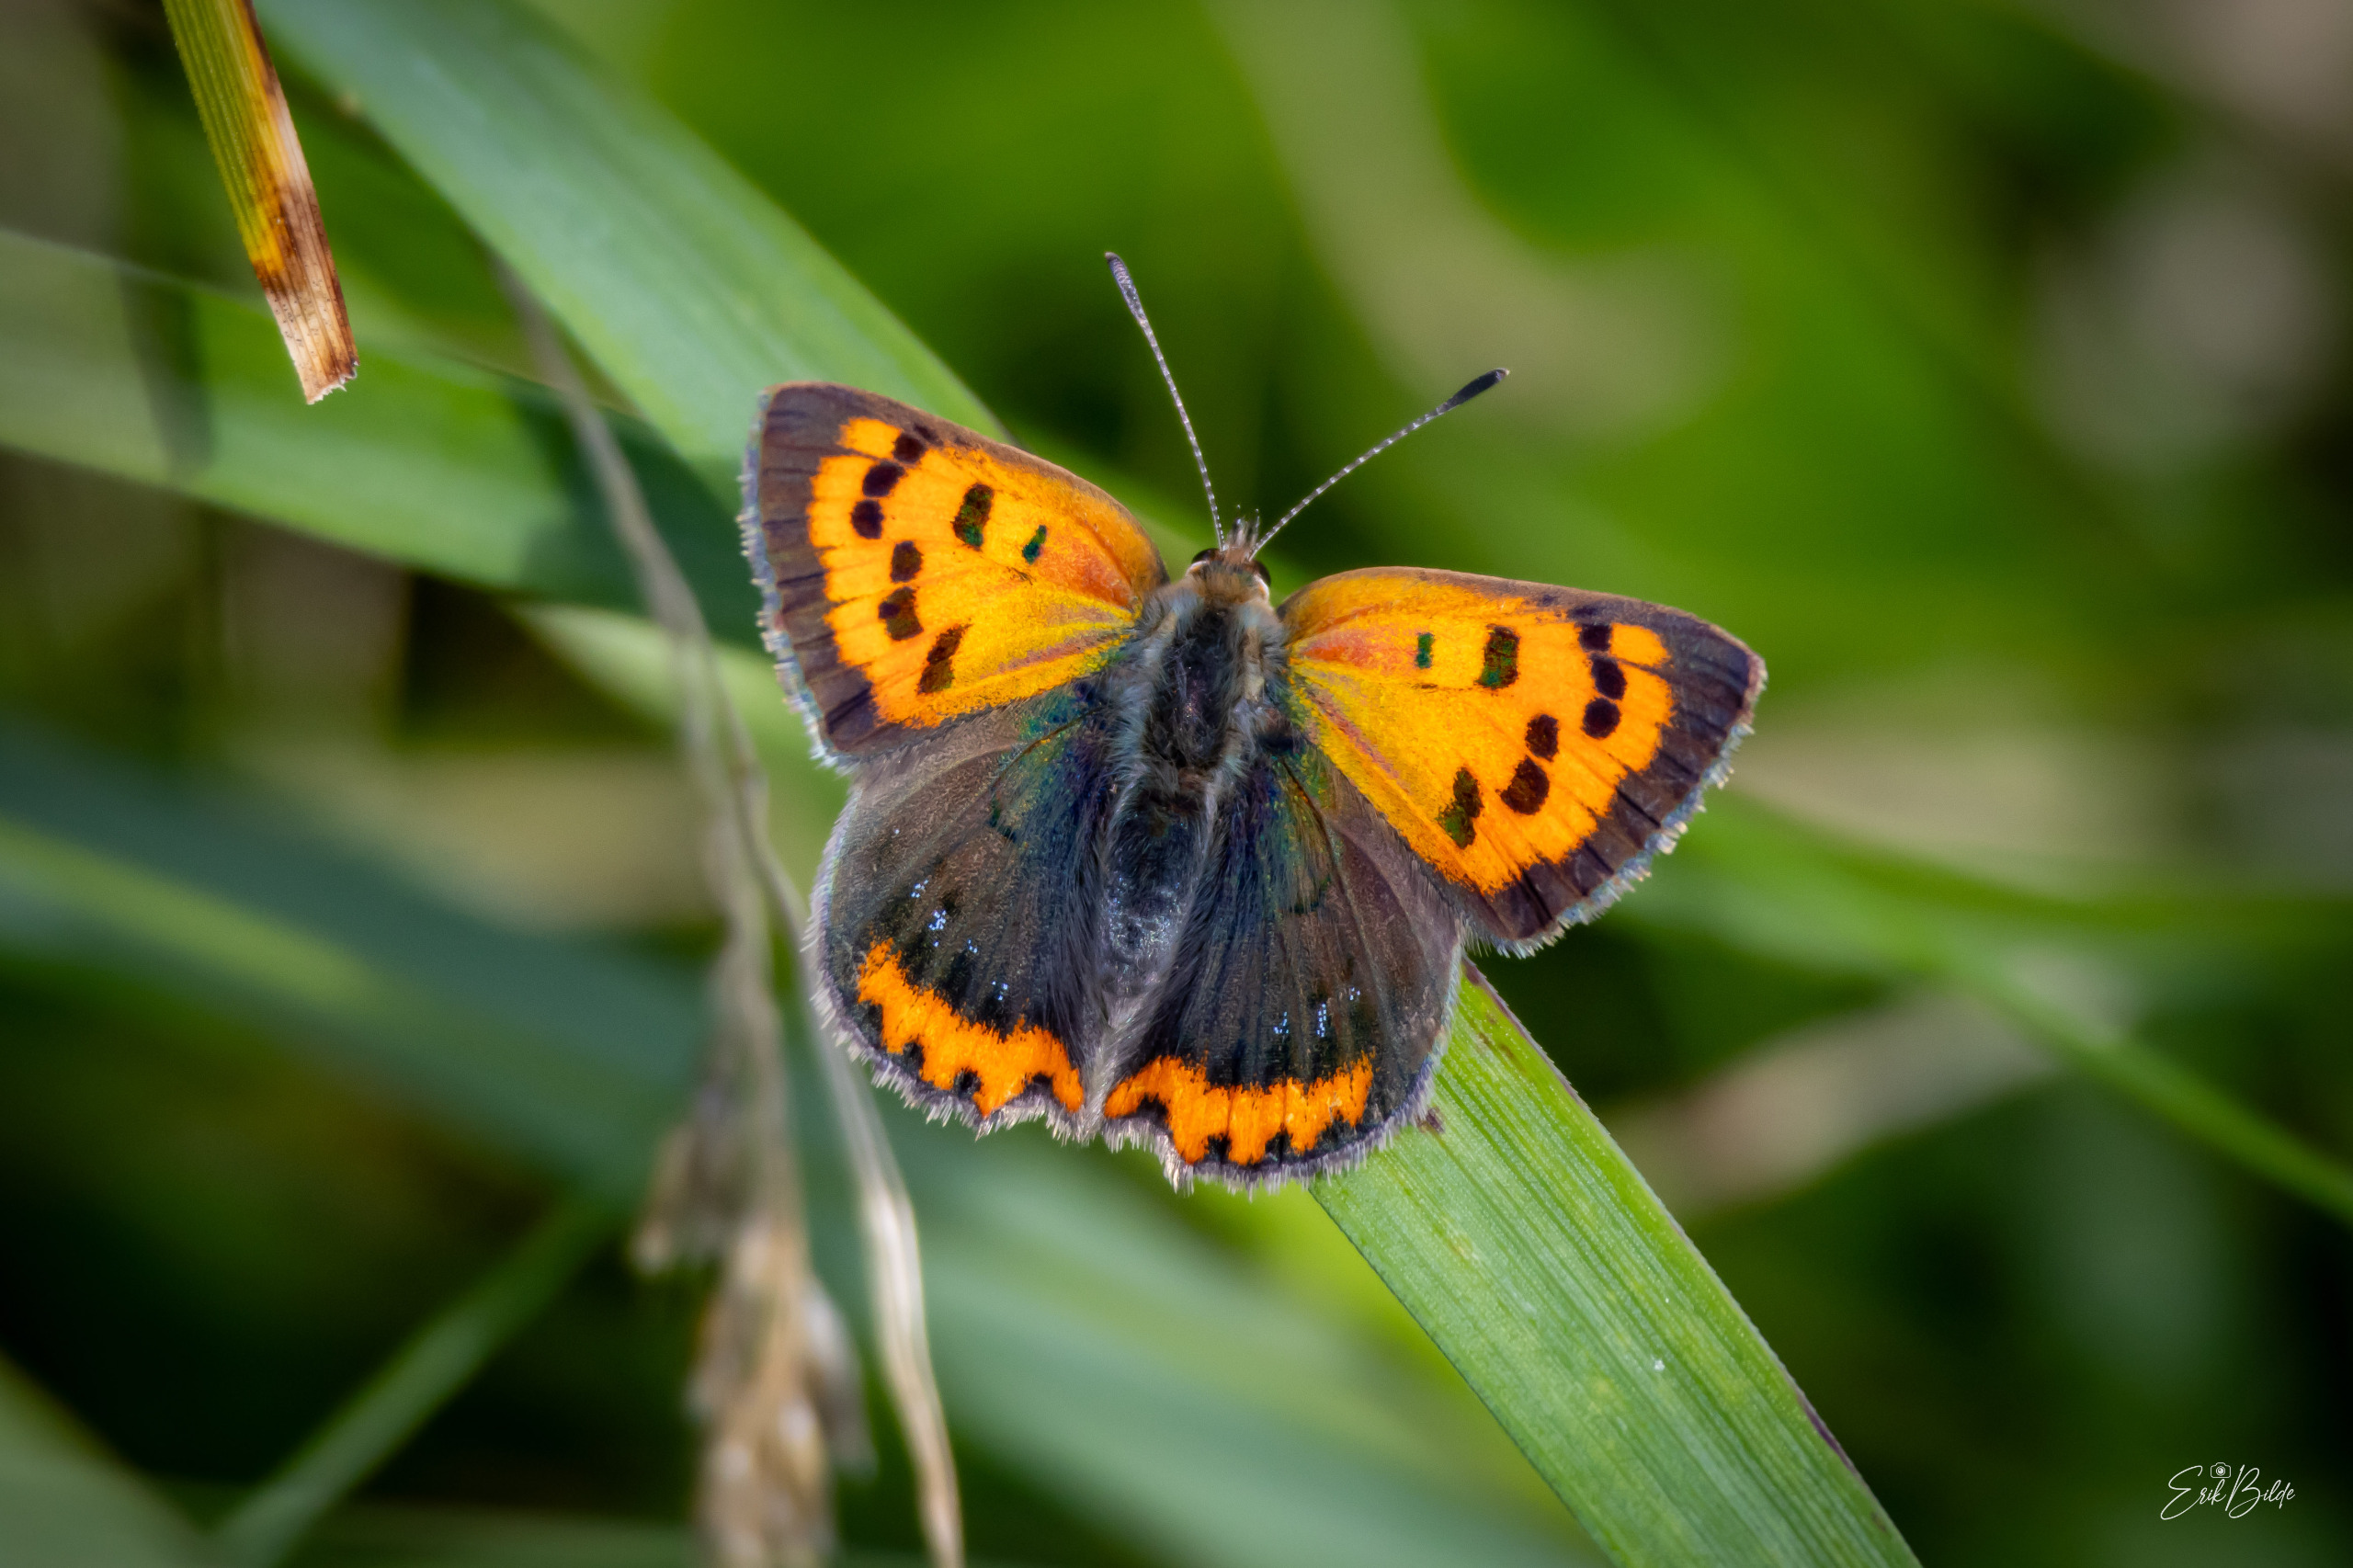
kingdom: Animalia
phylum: Arthropoda
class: Insecta
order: Lepidoptera
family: Lycaenidae
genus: Lycaena
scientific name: Lycaena phlaeas
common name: Lille ildfugl
